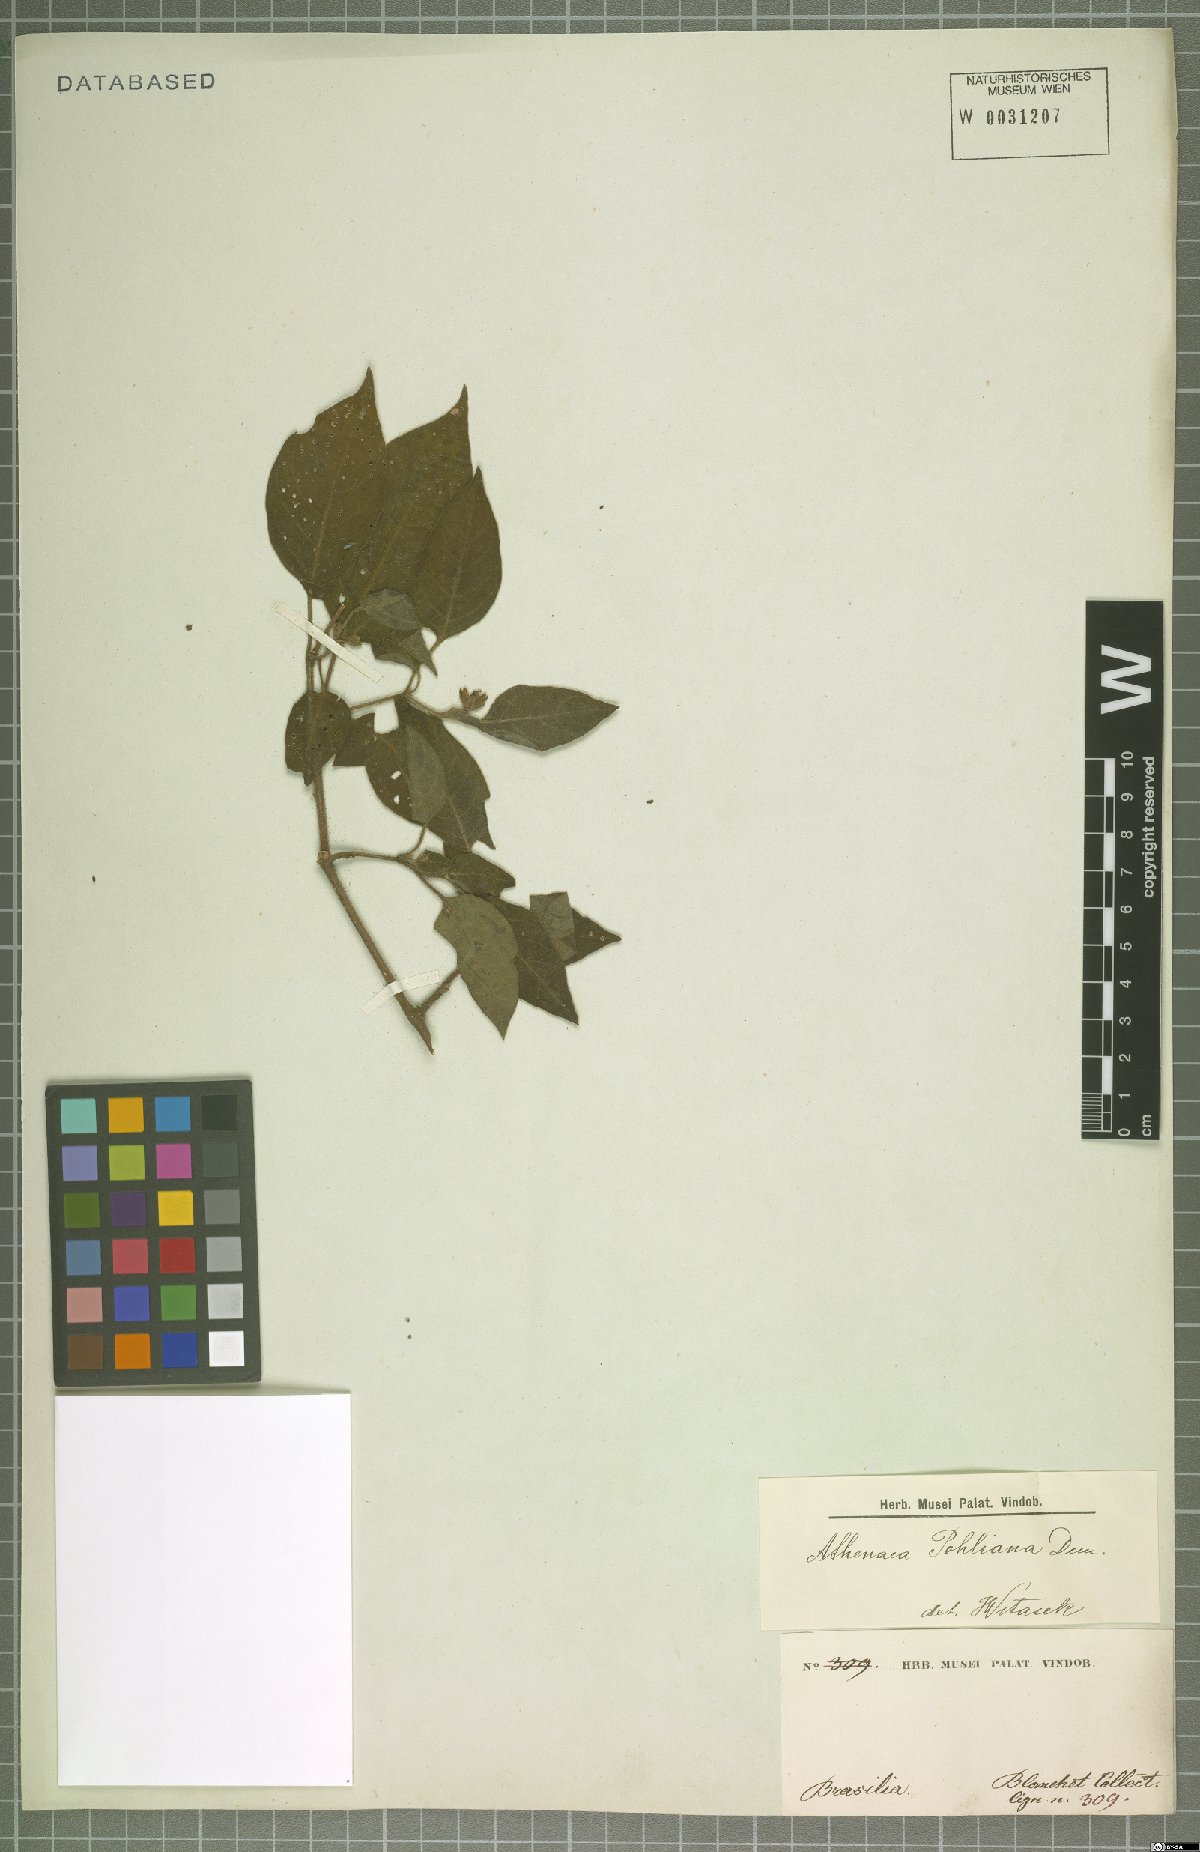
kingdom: Plantae
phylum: Tracheophyta
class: Magnoliopsida
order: Solanales
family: Solanaceae
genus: Athenaea
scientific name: Athenaea pogogena
